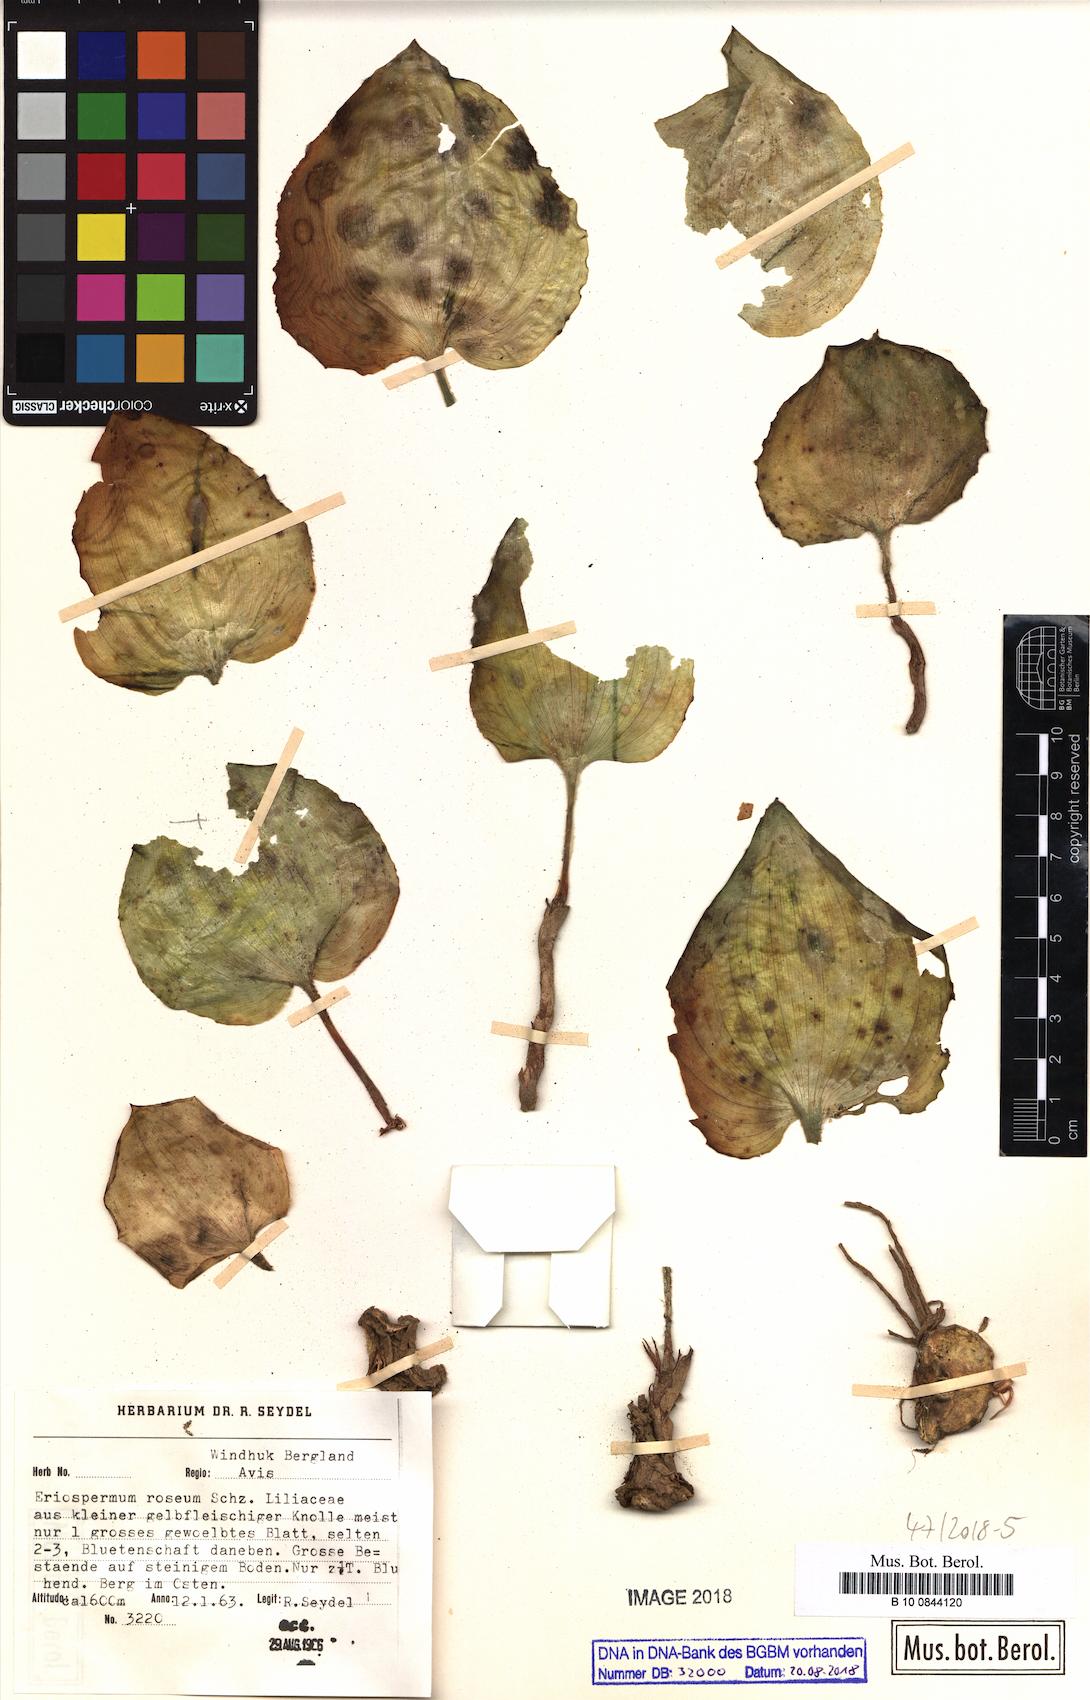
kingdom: Plantae
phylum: Tracheophyta
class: Liliopsida
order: Asparagales
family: Asparagaceae
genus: Eriospermum
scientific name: Eriospermum roseum
